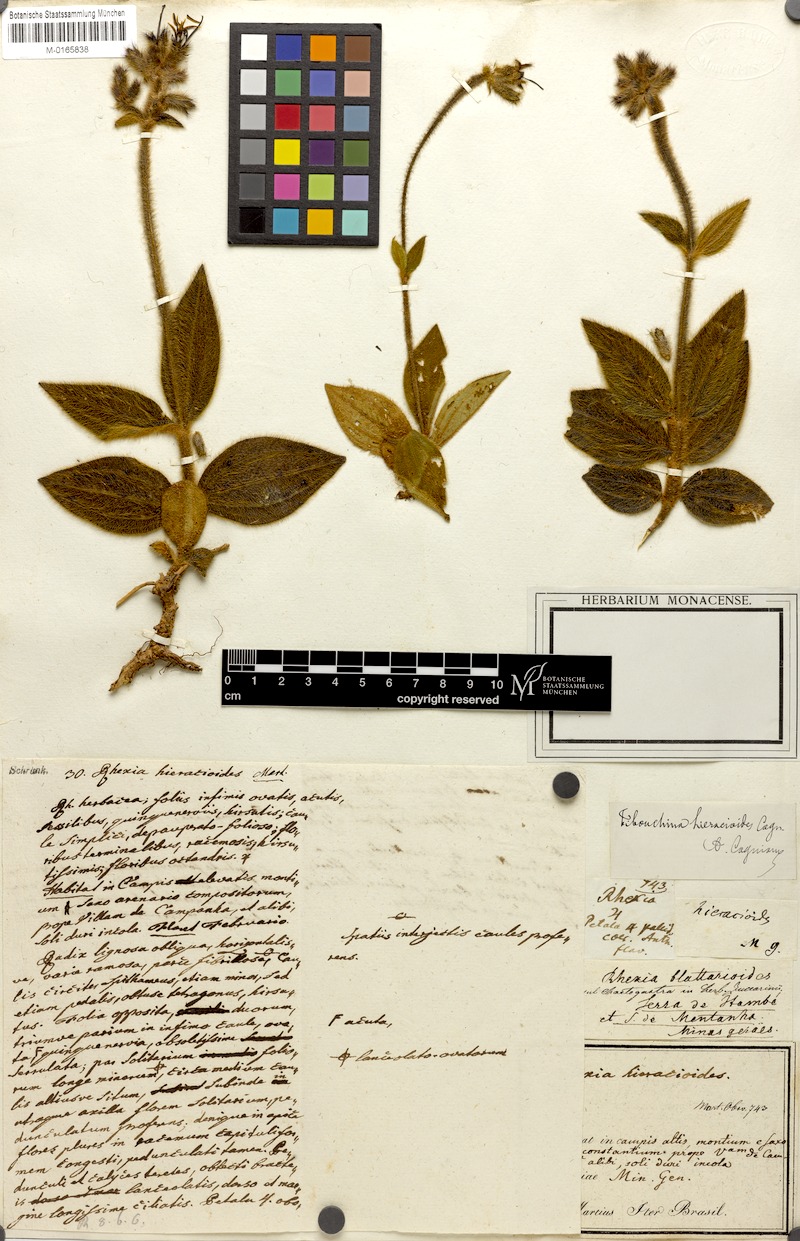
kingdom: Plantae
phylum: Tracheophyta
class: Magnoliopsida
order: Myrtales
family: Melastomataceae
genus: Chaetogastra
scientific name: Chaetogastra hieracioides
